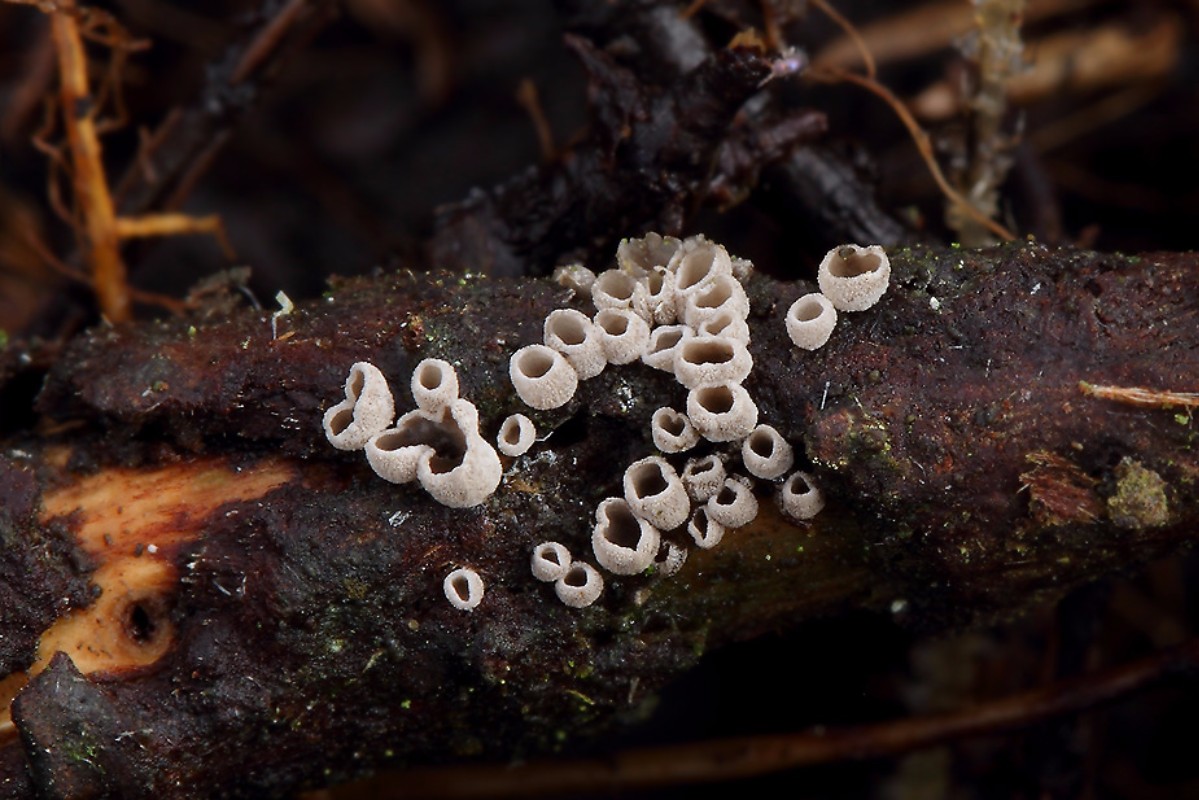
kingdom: Fungi
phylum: Basidiomycota
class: Agaricomycetes
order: Agaricales
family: Pleurotaceae
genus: Resupinatus
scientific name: Resupinatus griseopallidus
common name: ene-barkhat
